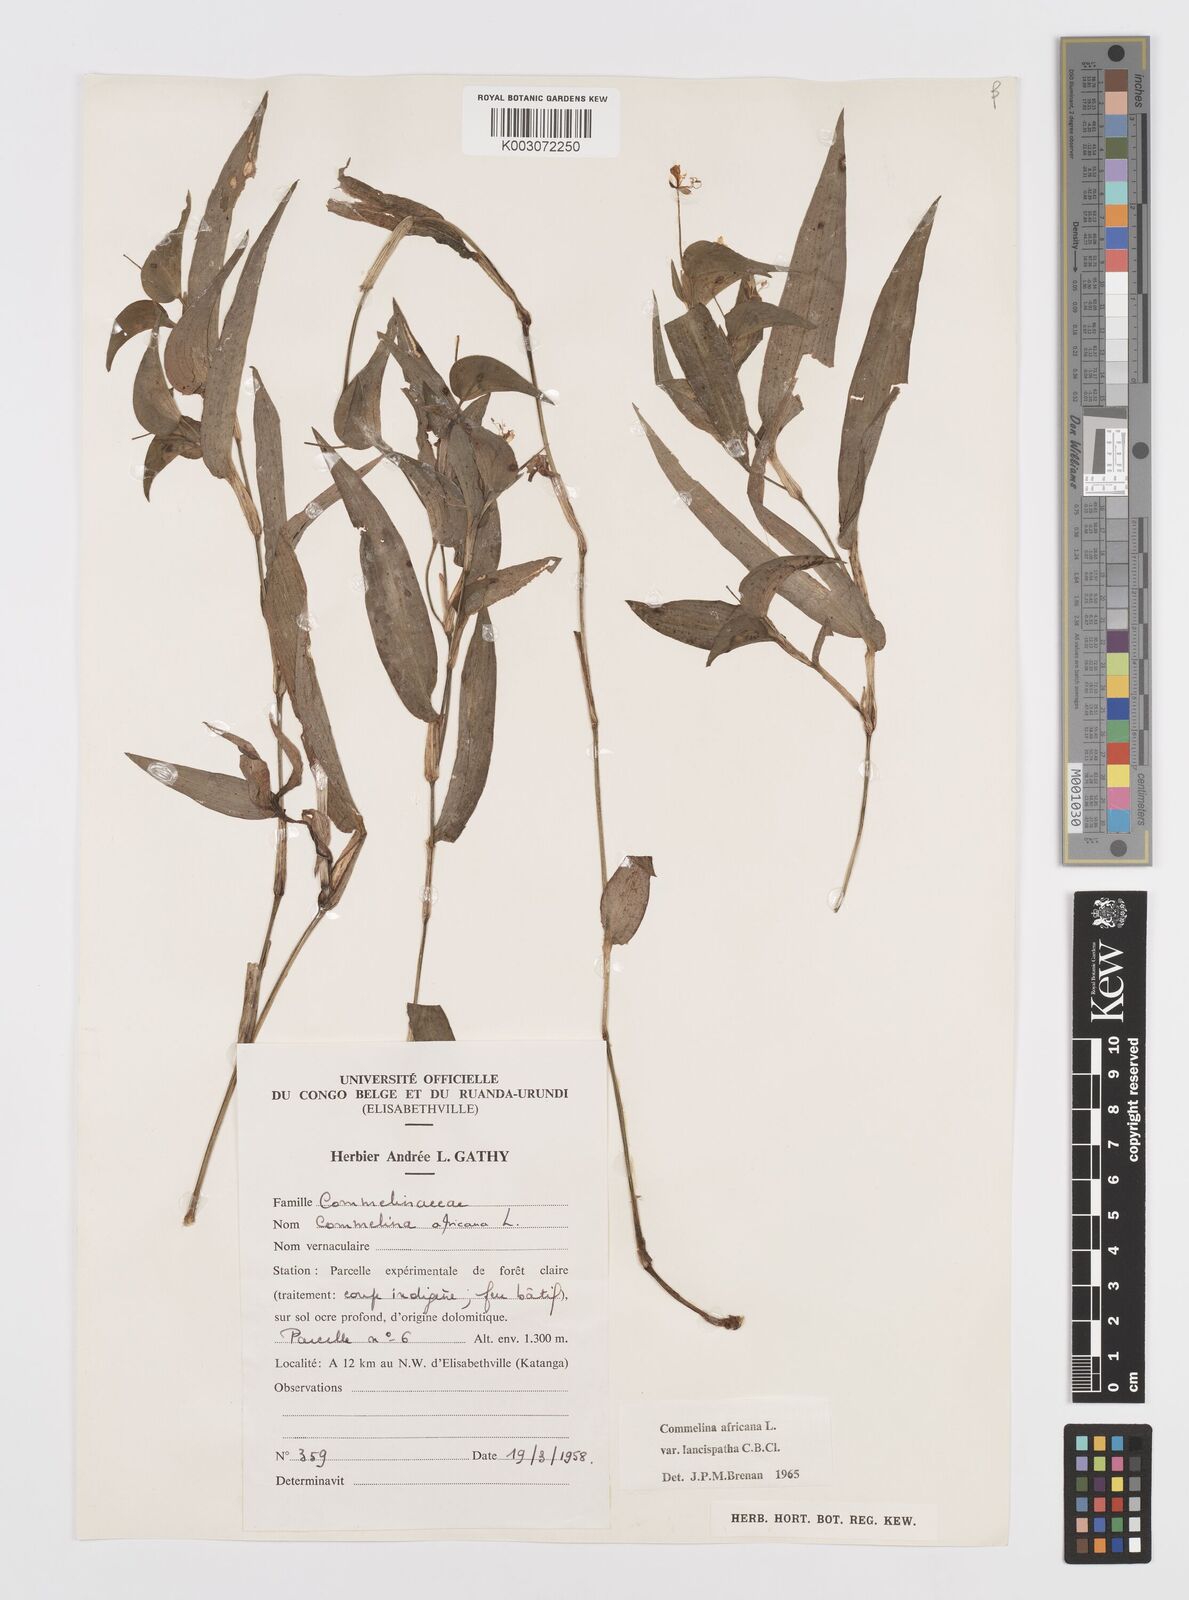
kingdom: Plantae
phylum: Tracheophyta
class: Liliopsida
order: Commelinales
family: Commelinaceae
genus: Commelina
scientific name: Commelina africana
